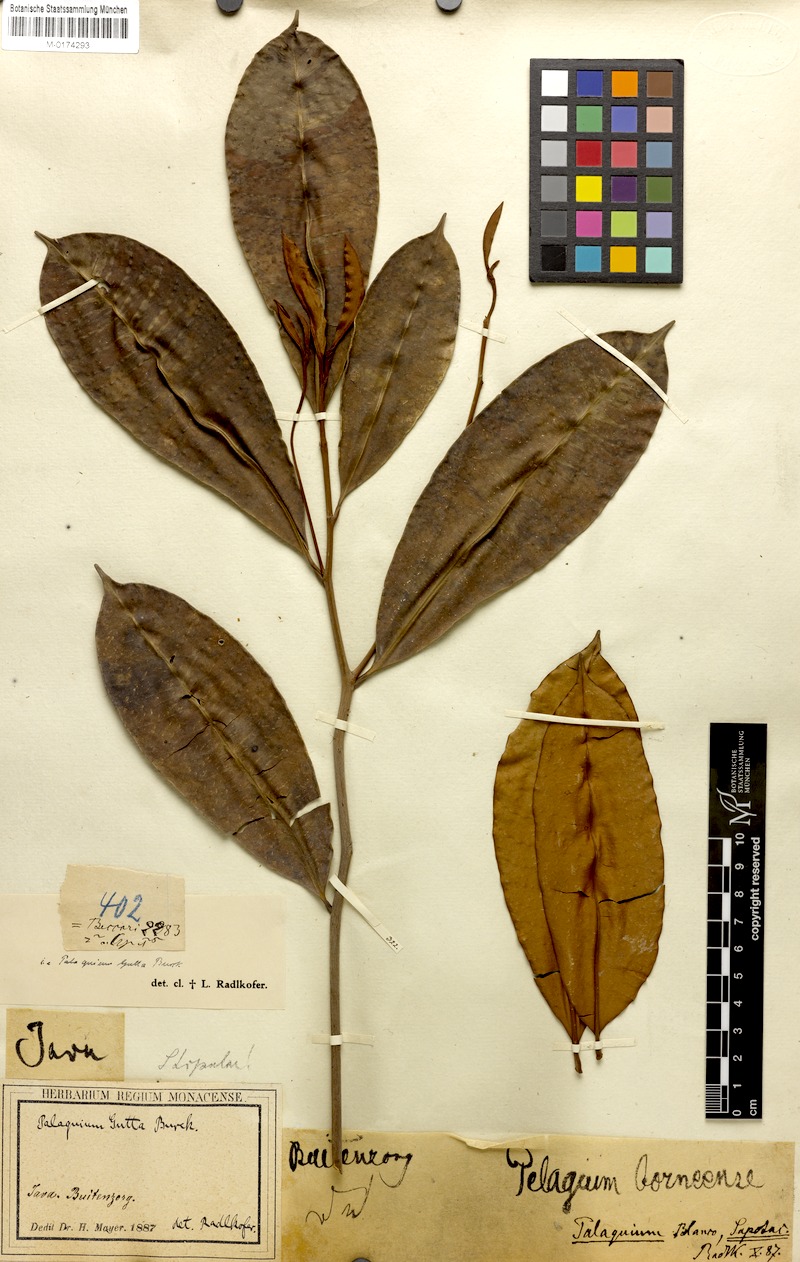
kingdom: Plantae
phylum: Tracheophyta
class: Magnoliopsida
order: Ericales
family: Sapotaceae
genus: Palaquium
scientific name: Palaquium gutta
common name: Gutta-percha-tree
